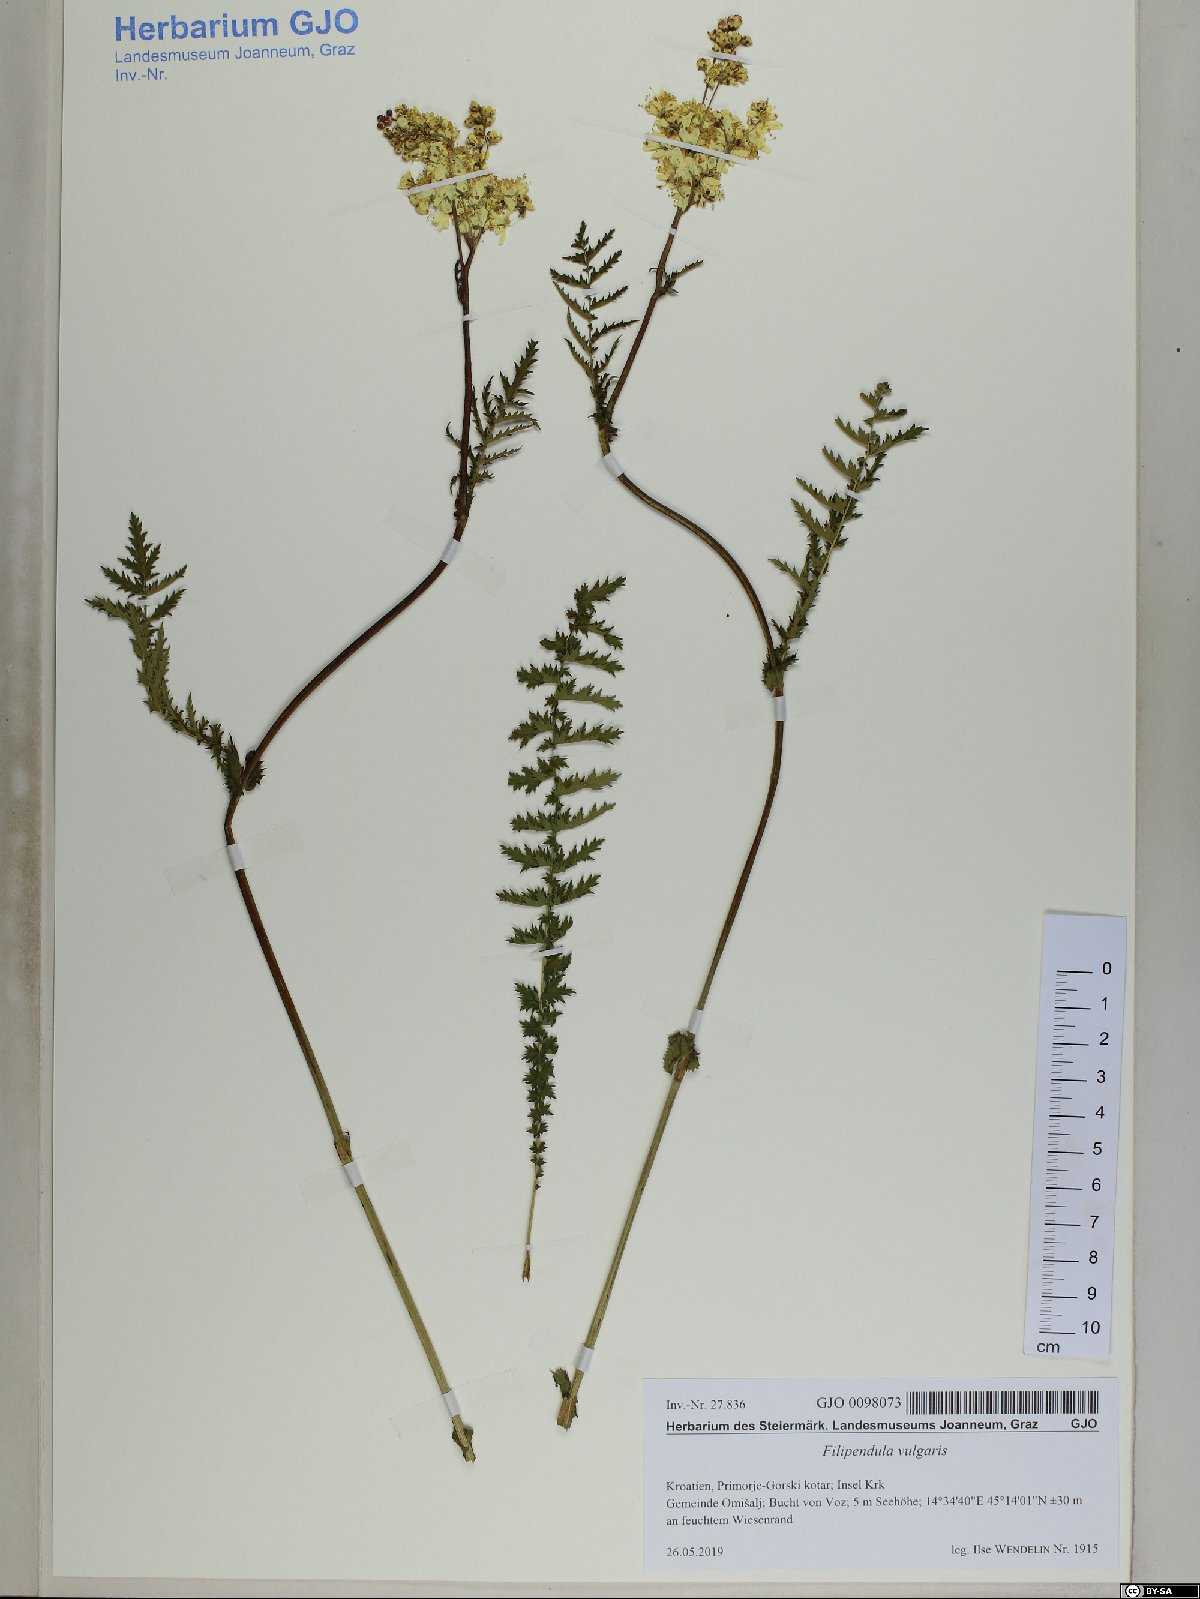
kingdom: Plantae
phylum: Tracheophyta
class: Magnoliopsida
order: Rosales
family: Rosaceae
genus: Filipendula
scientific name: Filipendula vulgaris
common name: Dropwort
